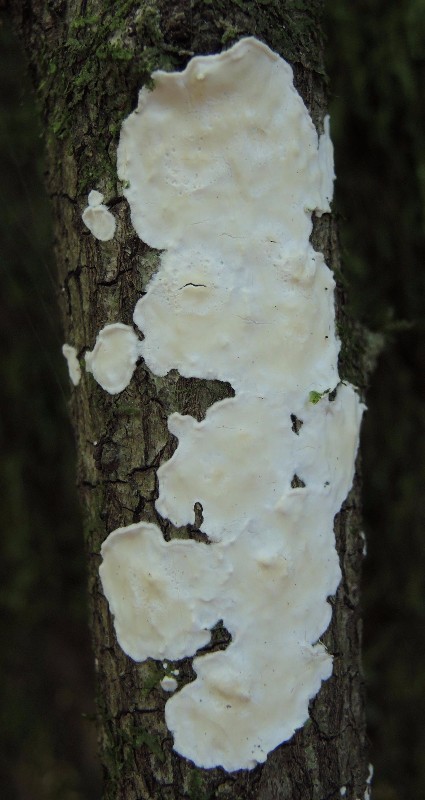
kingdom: Fungi
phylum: Basidiomycota
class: Agaricomycetes
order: Polyporales
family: Irpicaceae
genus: Byssomerulius
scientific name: Byssomerulius corium
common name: læder-åresvamp
